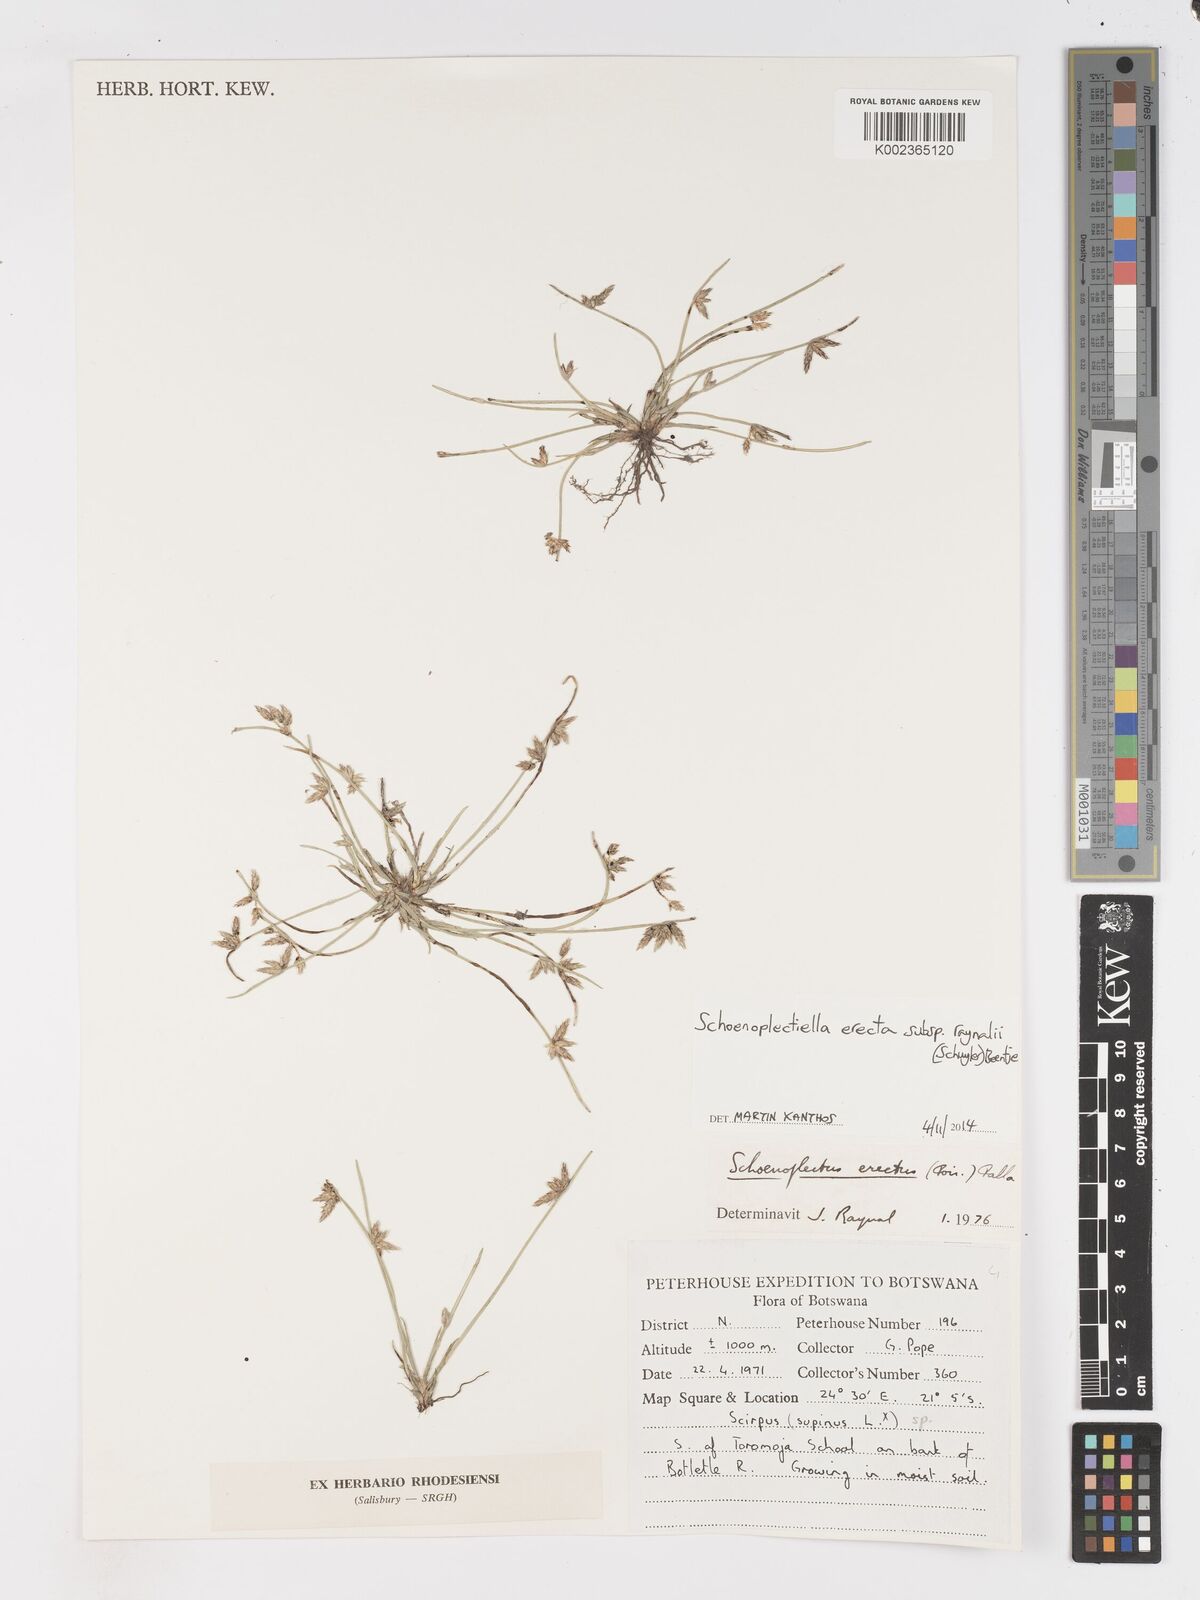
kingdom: Plantae
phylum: Tracheophyta
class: Liliopsida
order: Poales
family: Cyperaceae
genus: Schoenoplectiella
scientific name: Schoenoplectiella erecta
